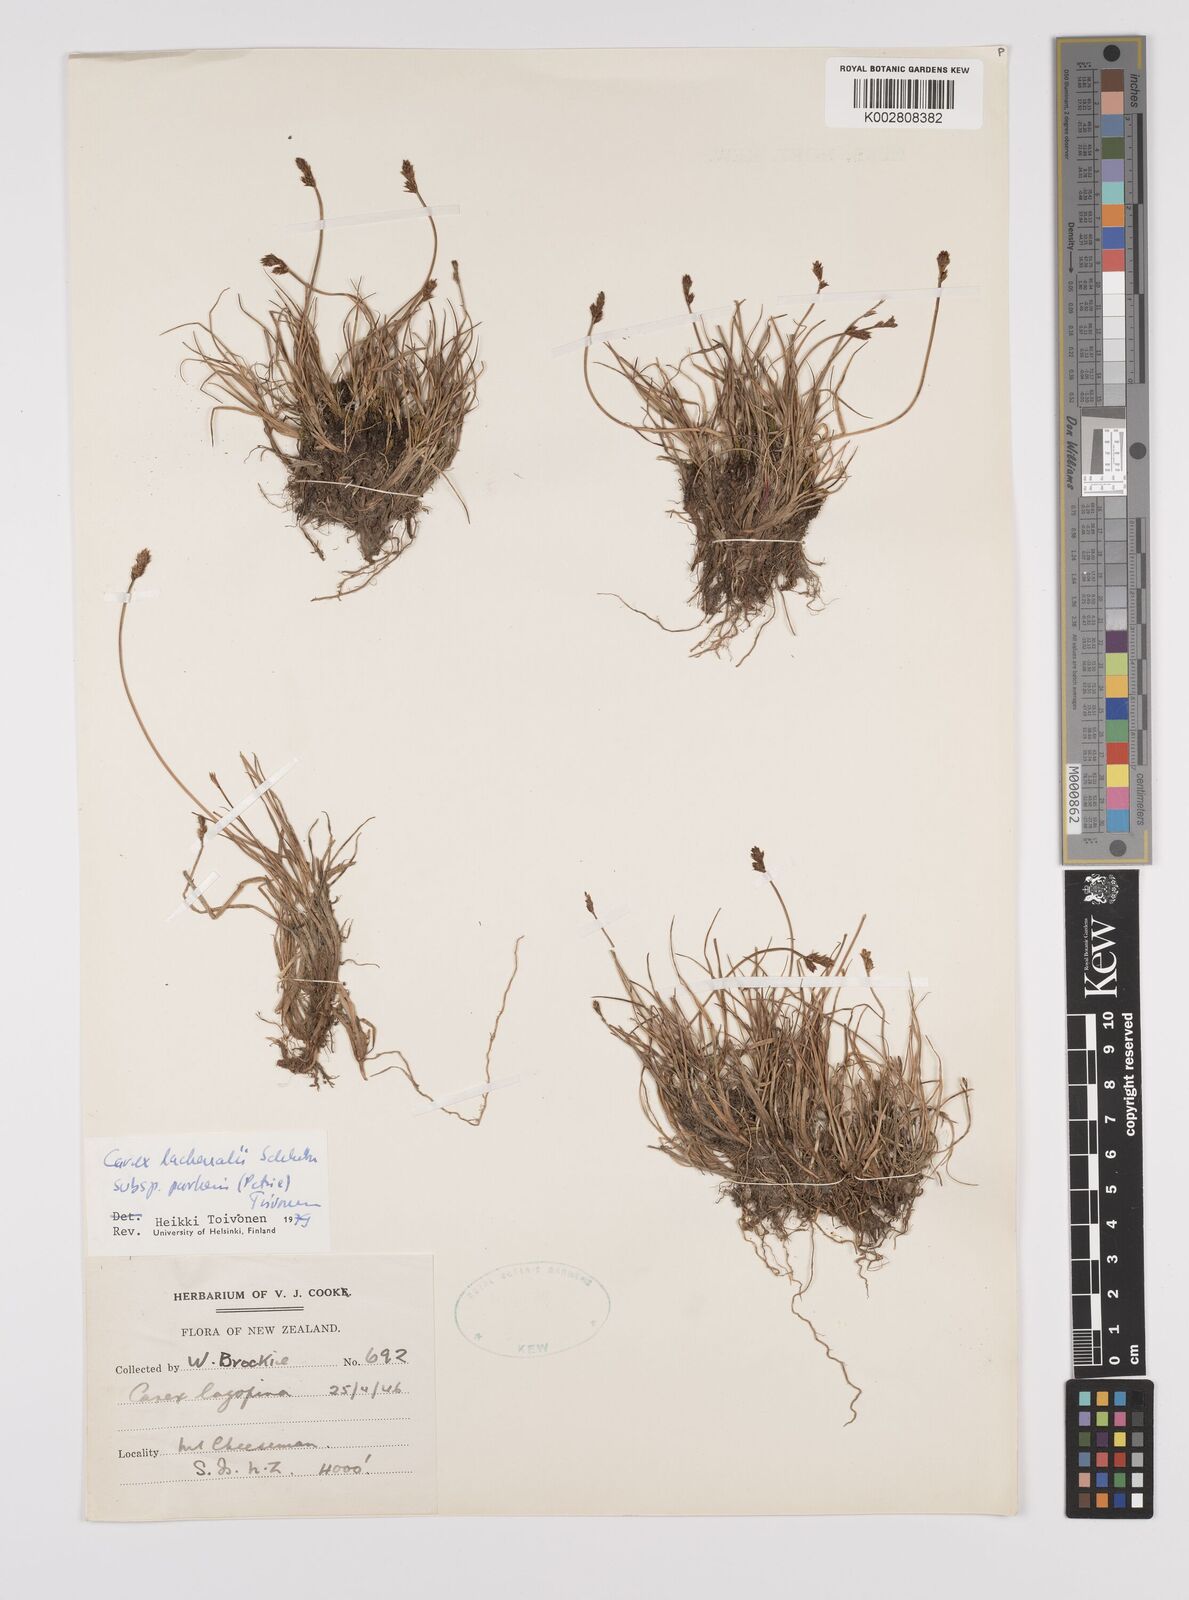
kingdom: Plantae
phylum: Tracheophyta
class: Liliopsida
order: Poales
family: Cyperaceae
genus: Carex
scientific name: Carex lachenalii
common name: Hare's-foot sedge
